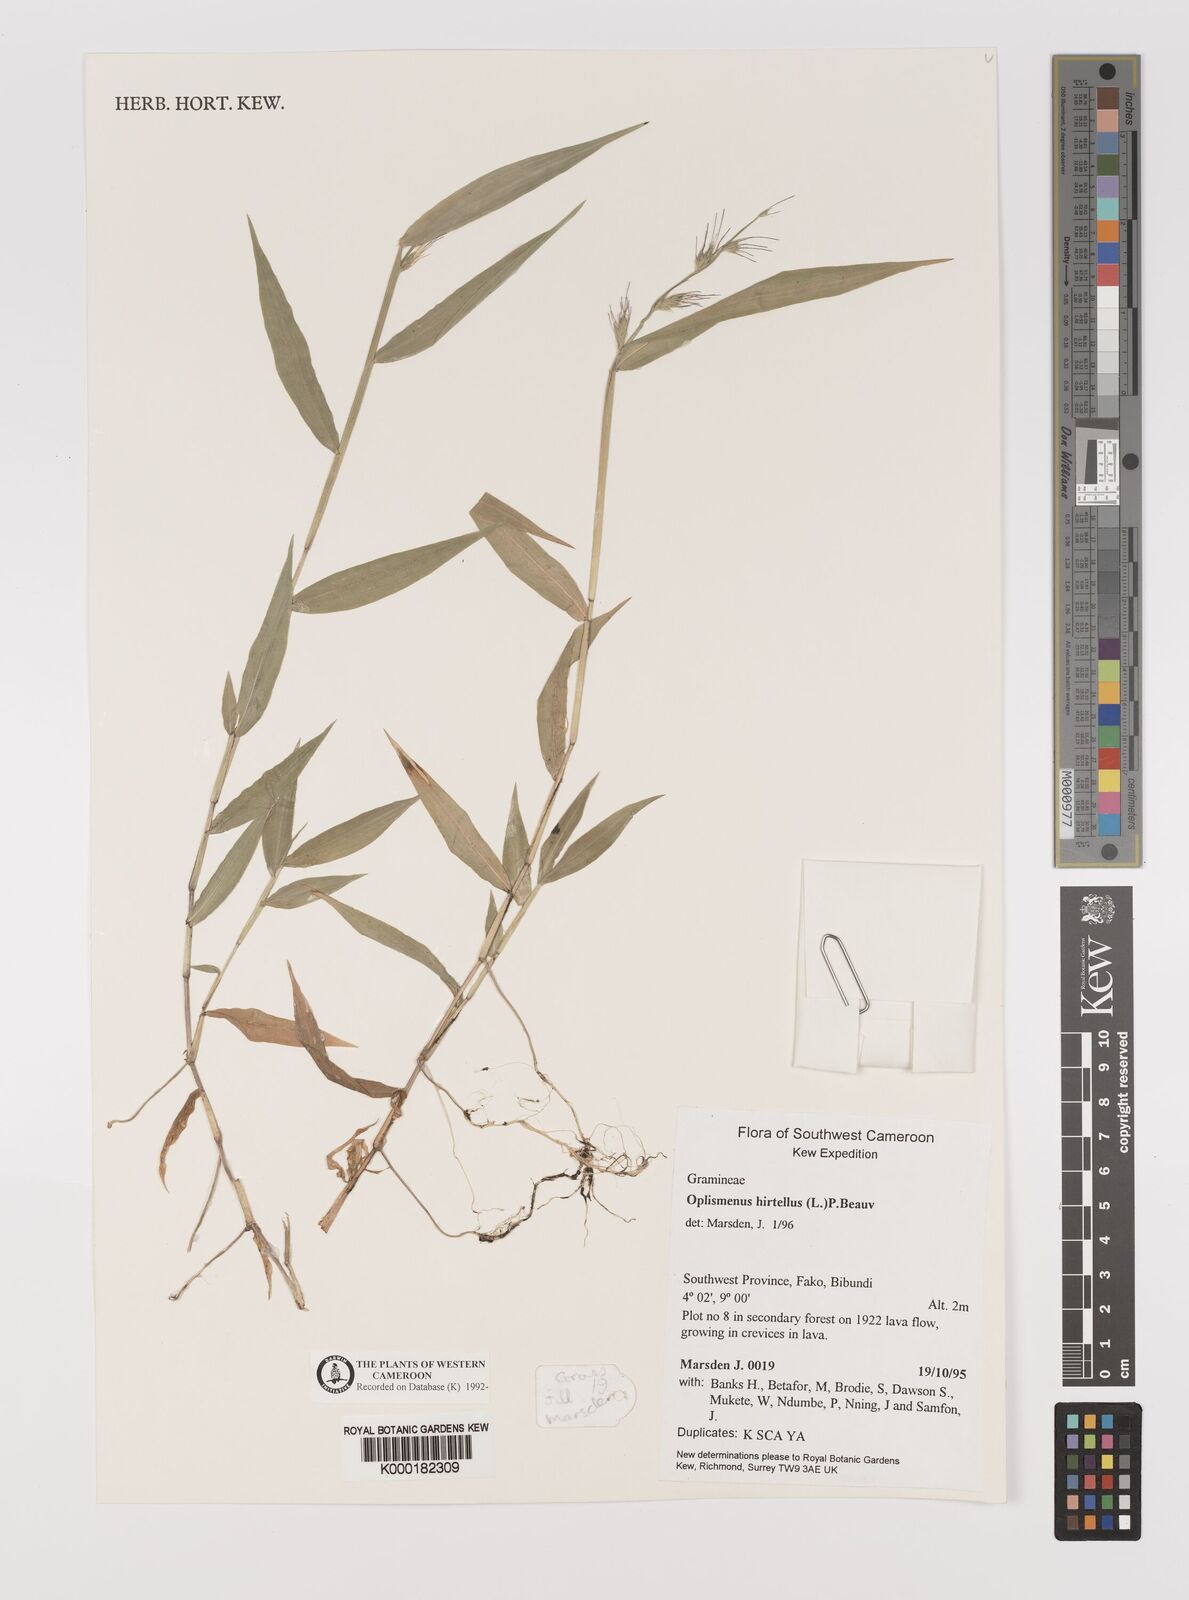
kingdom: Plantae
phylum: Tracheophyta
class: Liliopsida
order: Poales
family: Poaceae
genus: Oplismenus
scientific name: Oplismenus hirtellus
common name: Basketgrass
